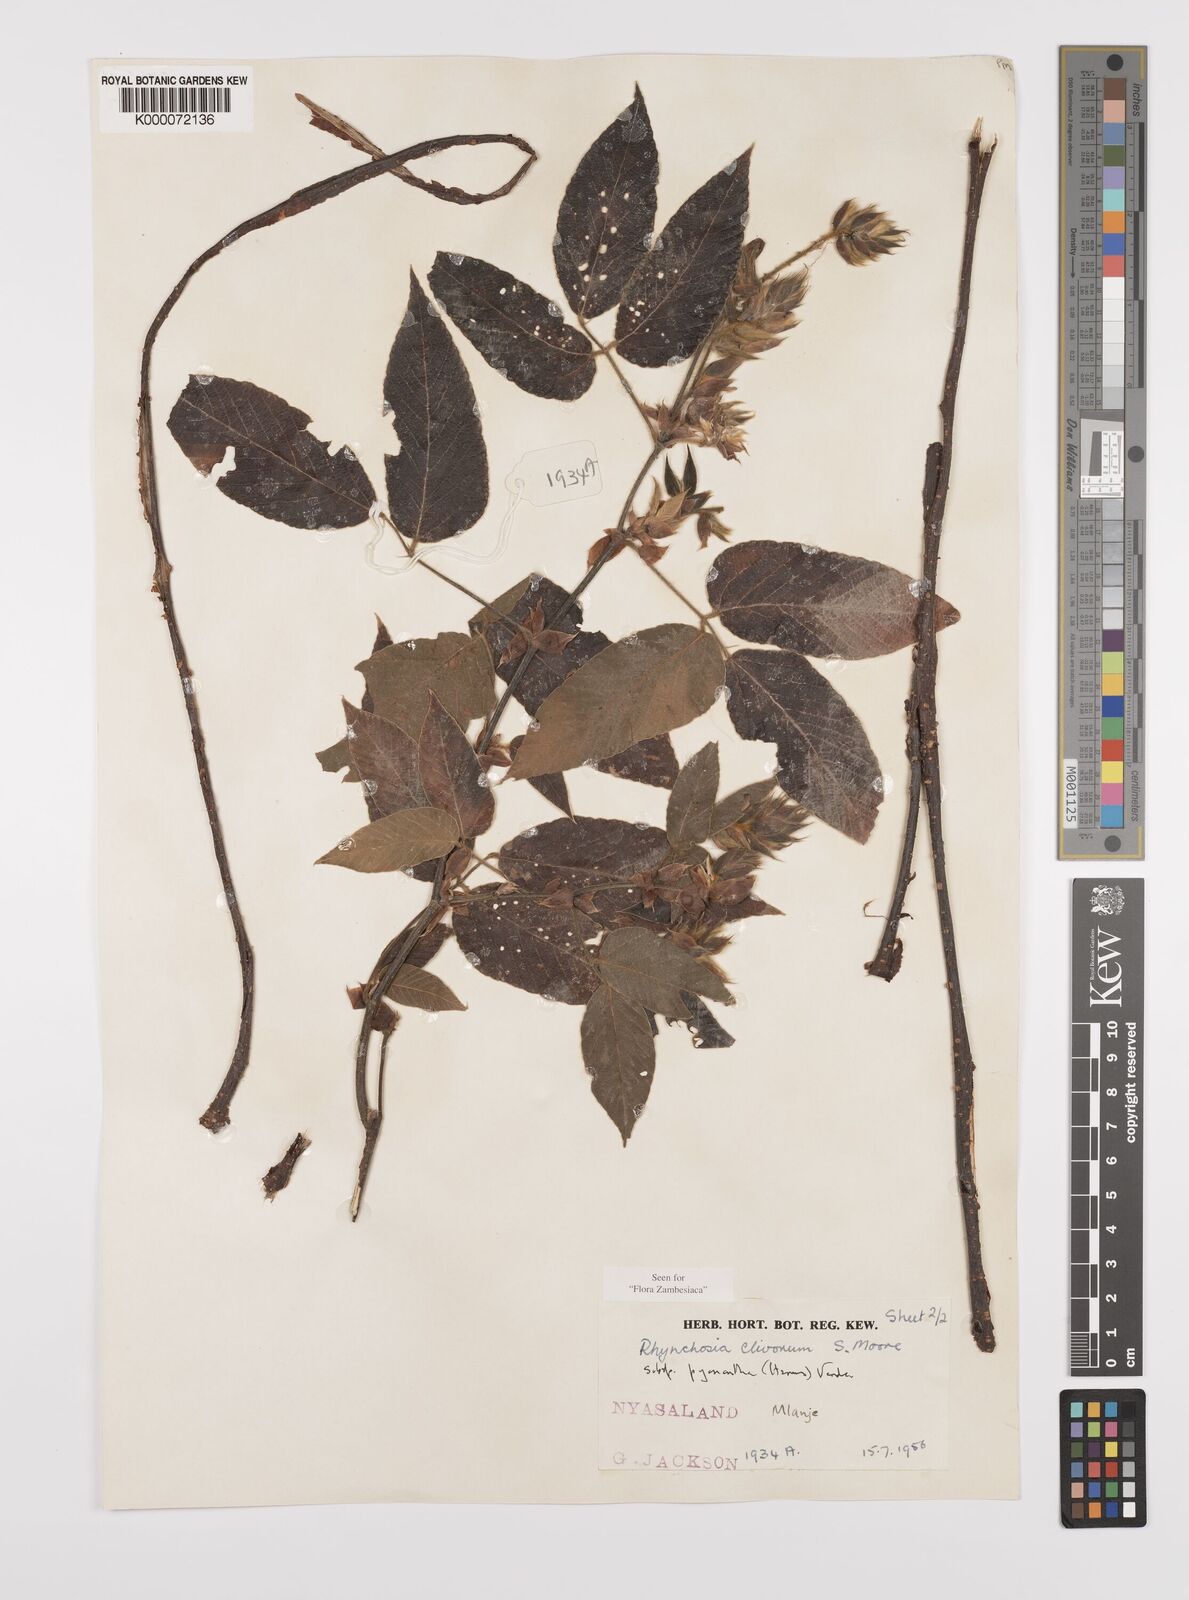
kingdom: Plantae
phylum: Tracheophyta
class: Magnoliopsida
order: Fabales
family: Fabaceae
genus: Rhynchosia
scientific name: Rhynchosia clivorum
